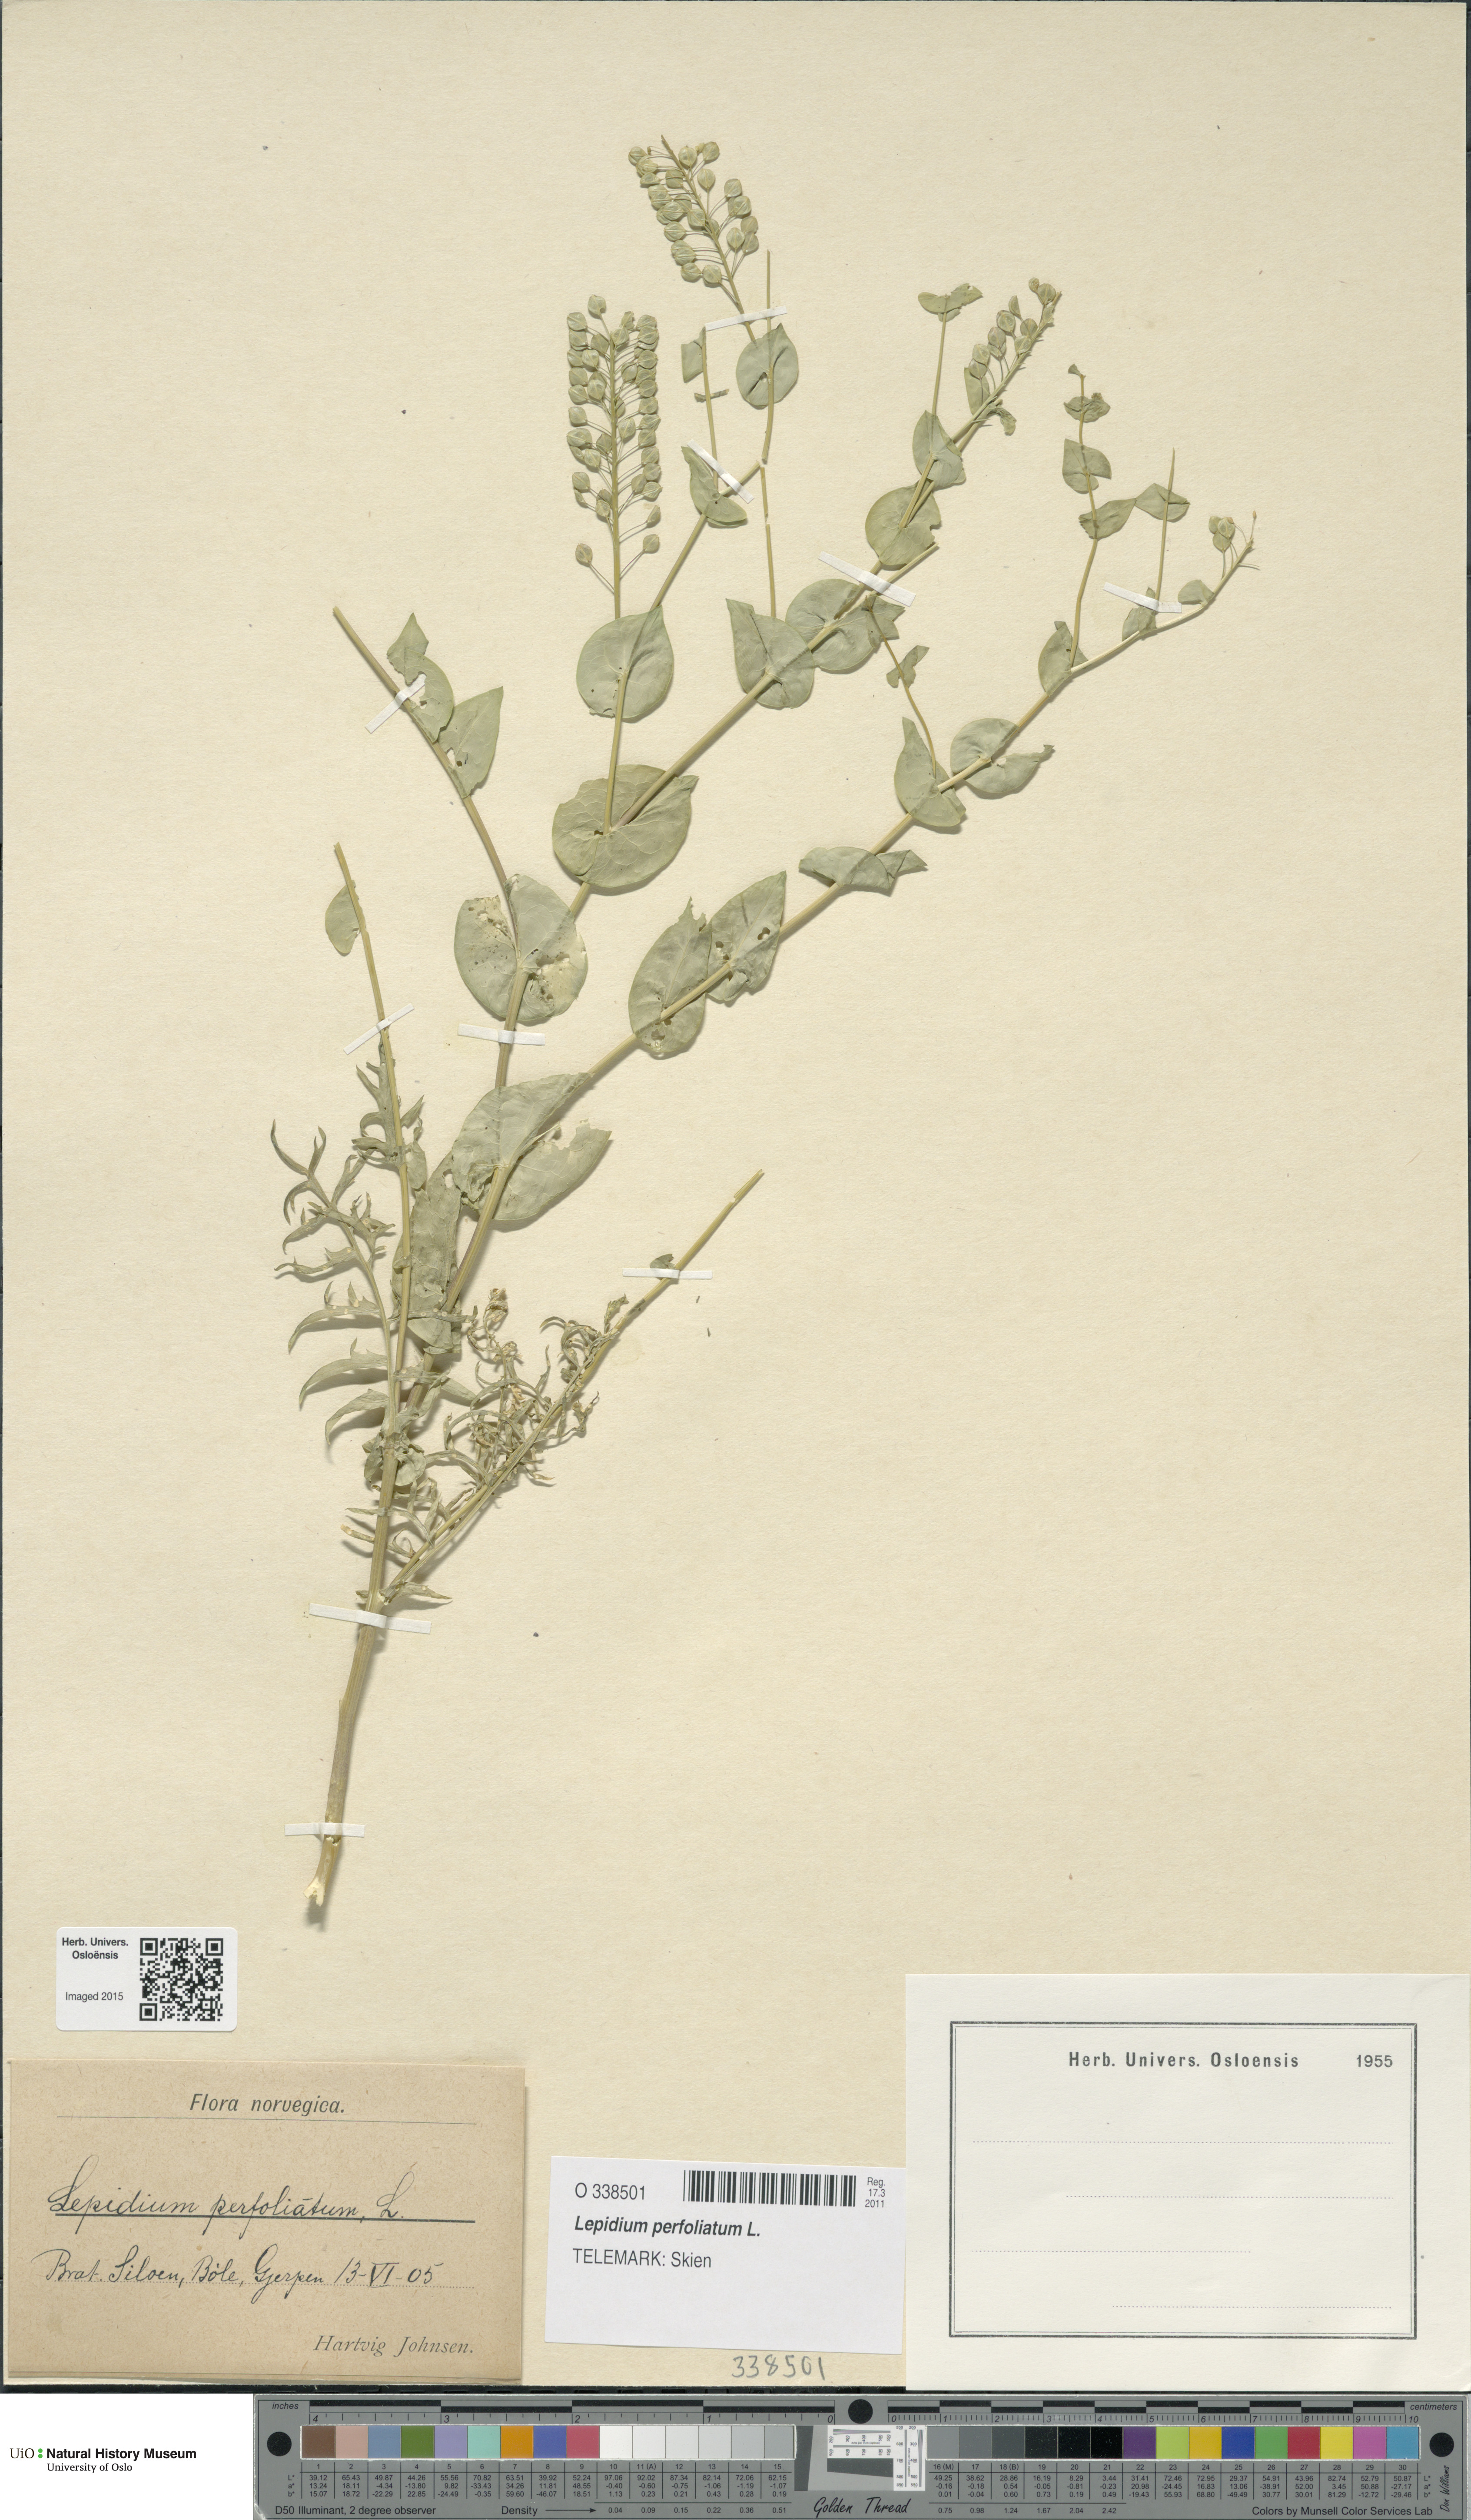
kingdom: Plantae
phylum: Tracheophyta
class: Magnoliopsida
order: Brassicales
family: Brassicaceae
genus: Lepidium
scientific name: Lepidium perfoliatum
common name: Perfoliate pepperwort
